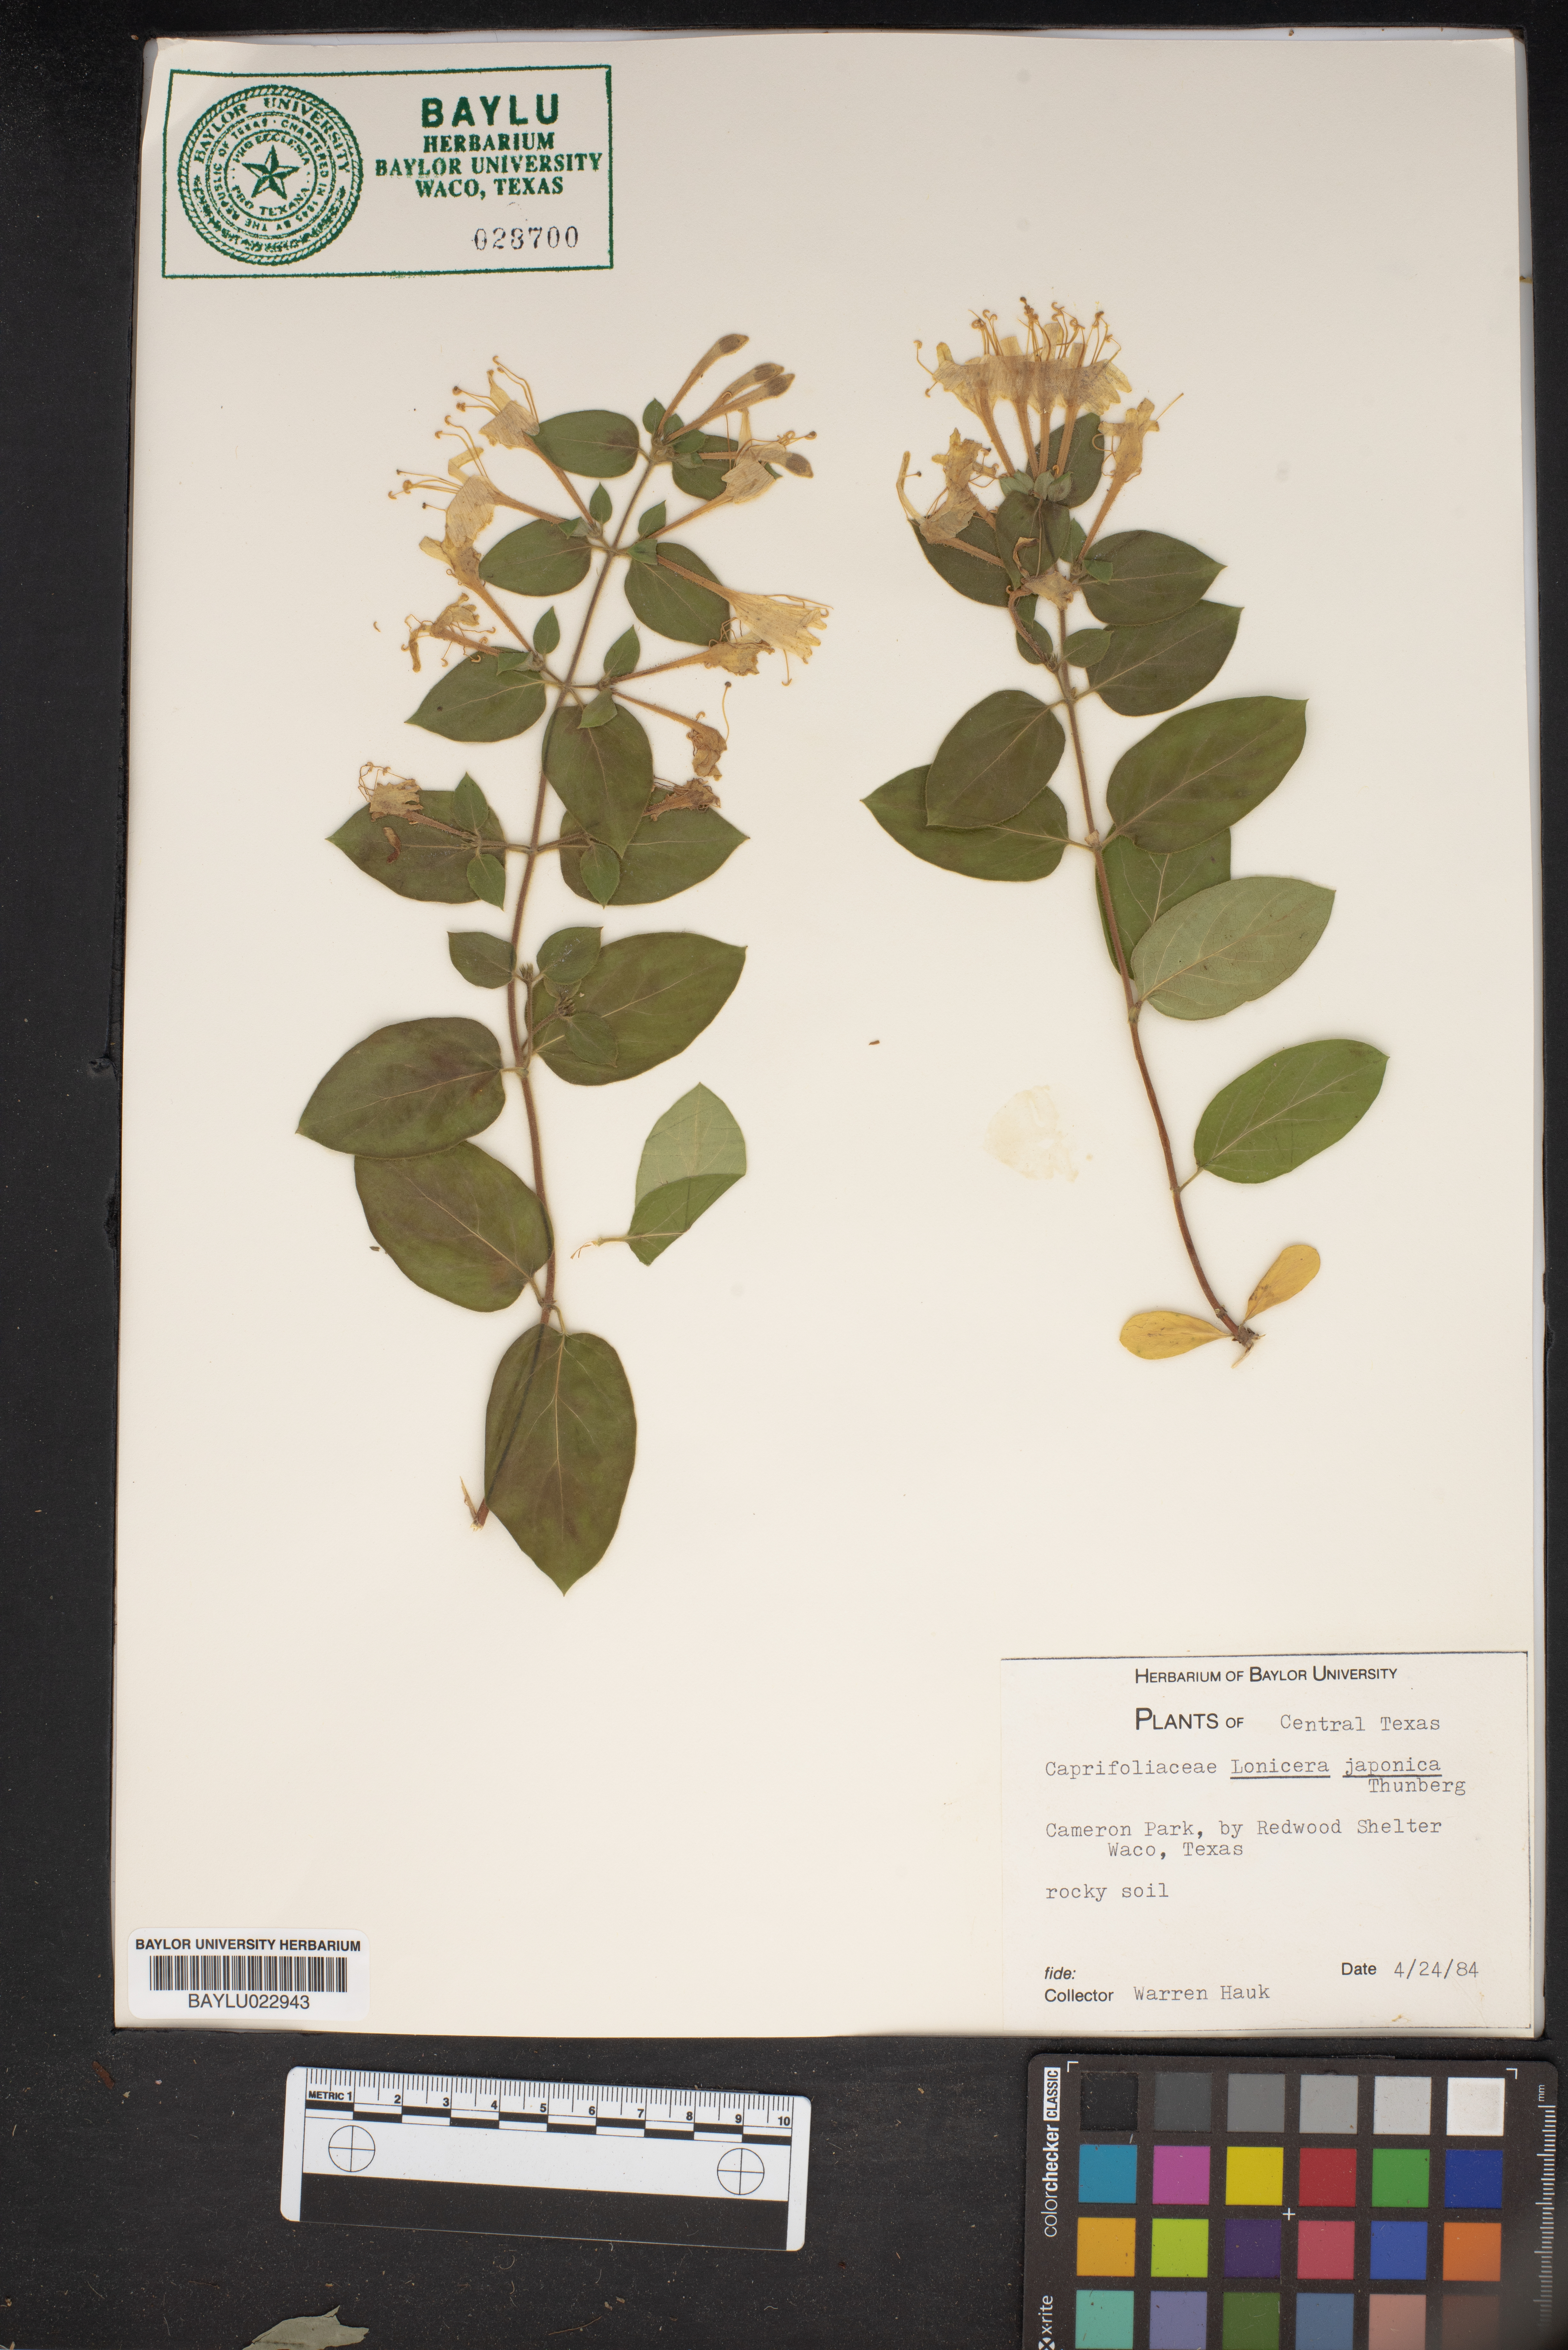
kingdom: Plantae
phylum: Tracheophyta
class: Magnoliopsida
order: Dipsacales
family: Caprifoliaceae
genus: Lonicera
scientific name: Lonicera japonica
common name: Japanese honeysuckle
